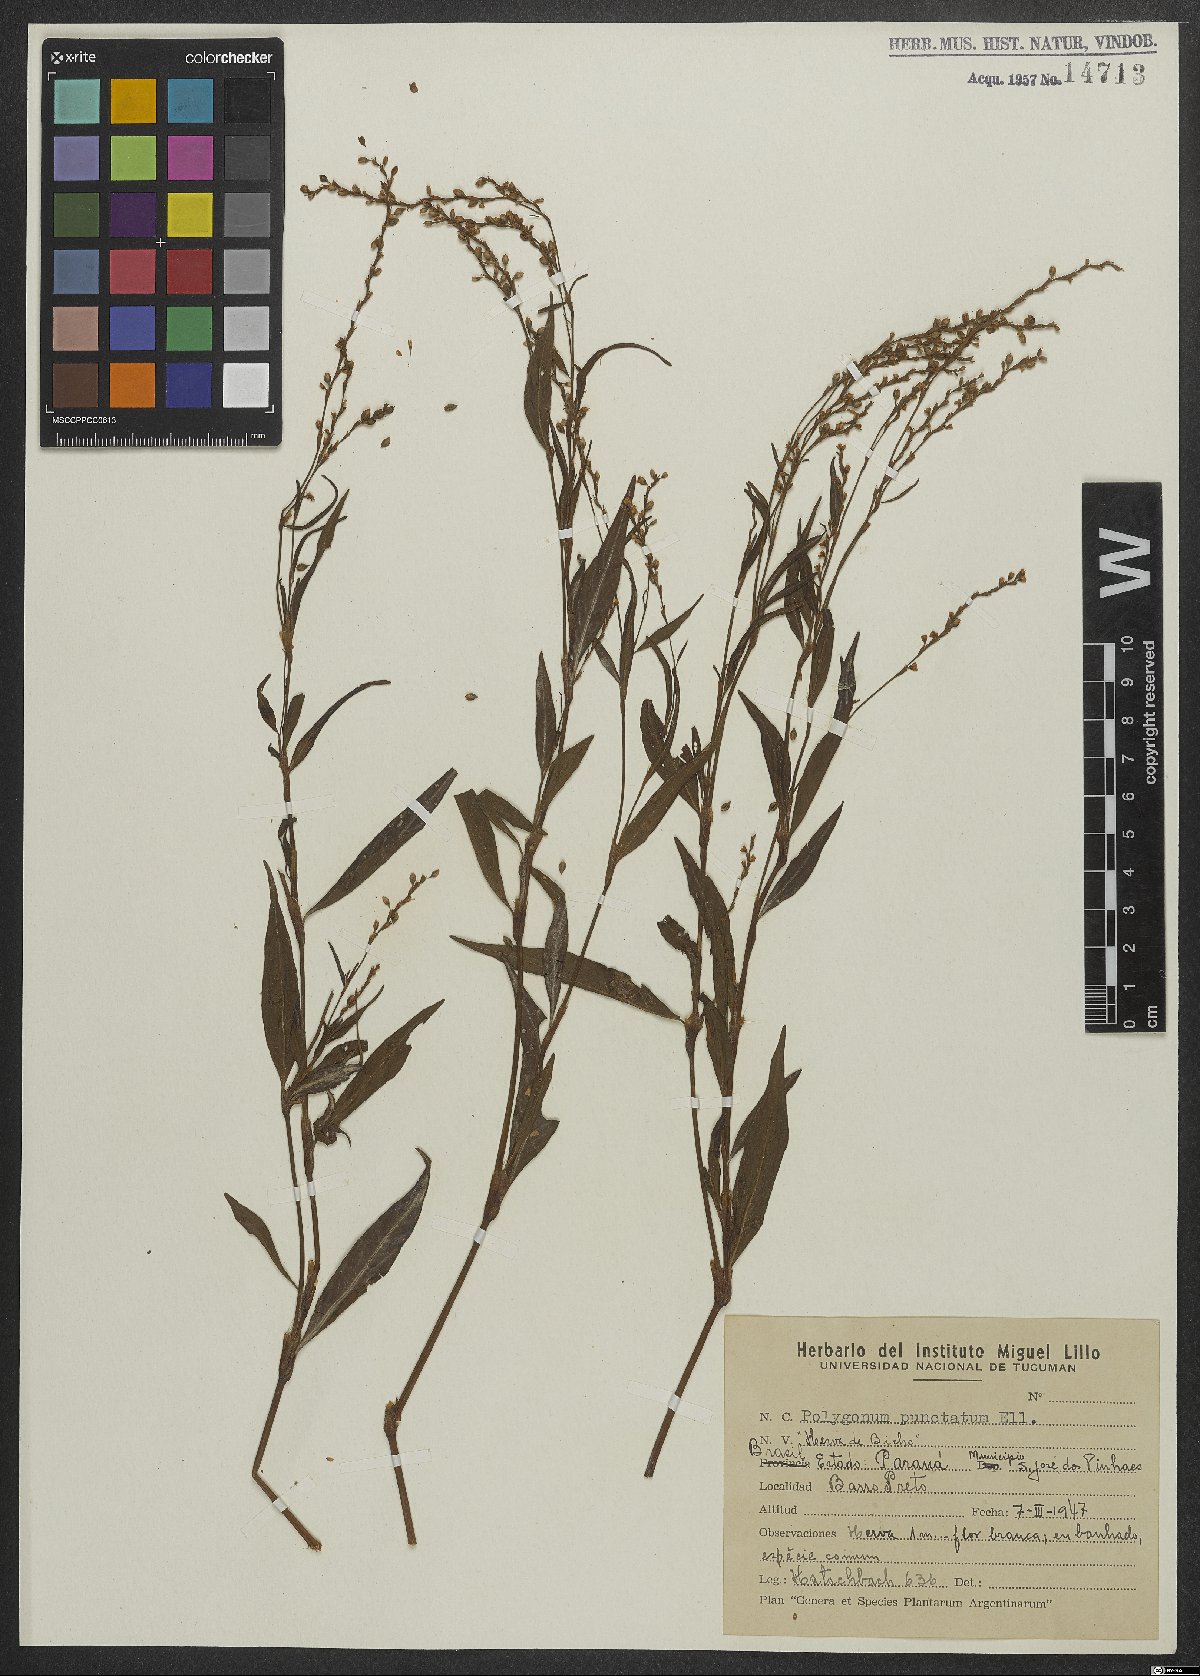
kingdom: Plantae
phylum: Tracheophyta
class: Magnoliopsida
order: Caryophyllales
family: Polygonaceae
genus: Persicaria
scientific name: Persicaria punctata
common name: Dotted smartweed
